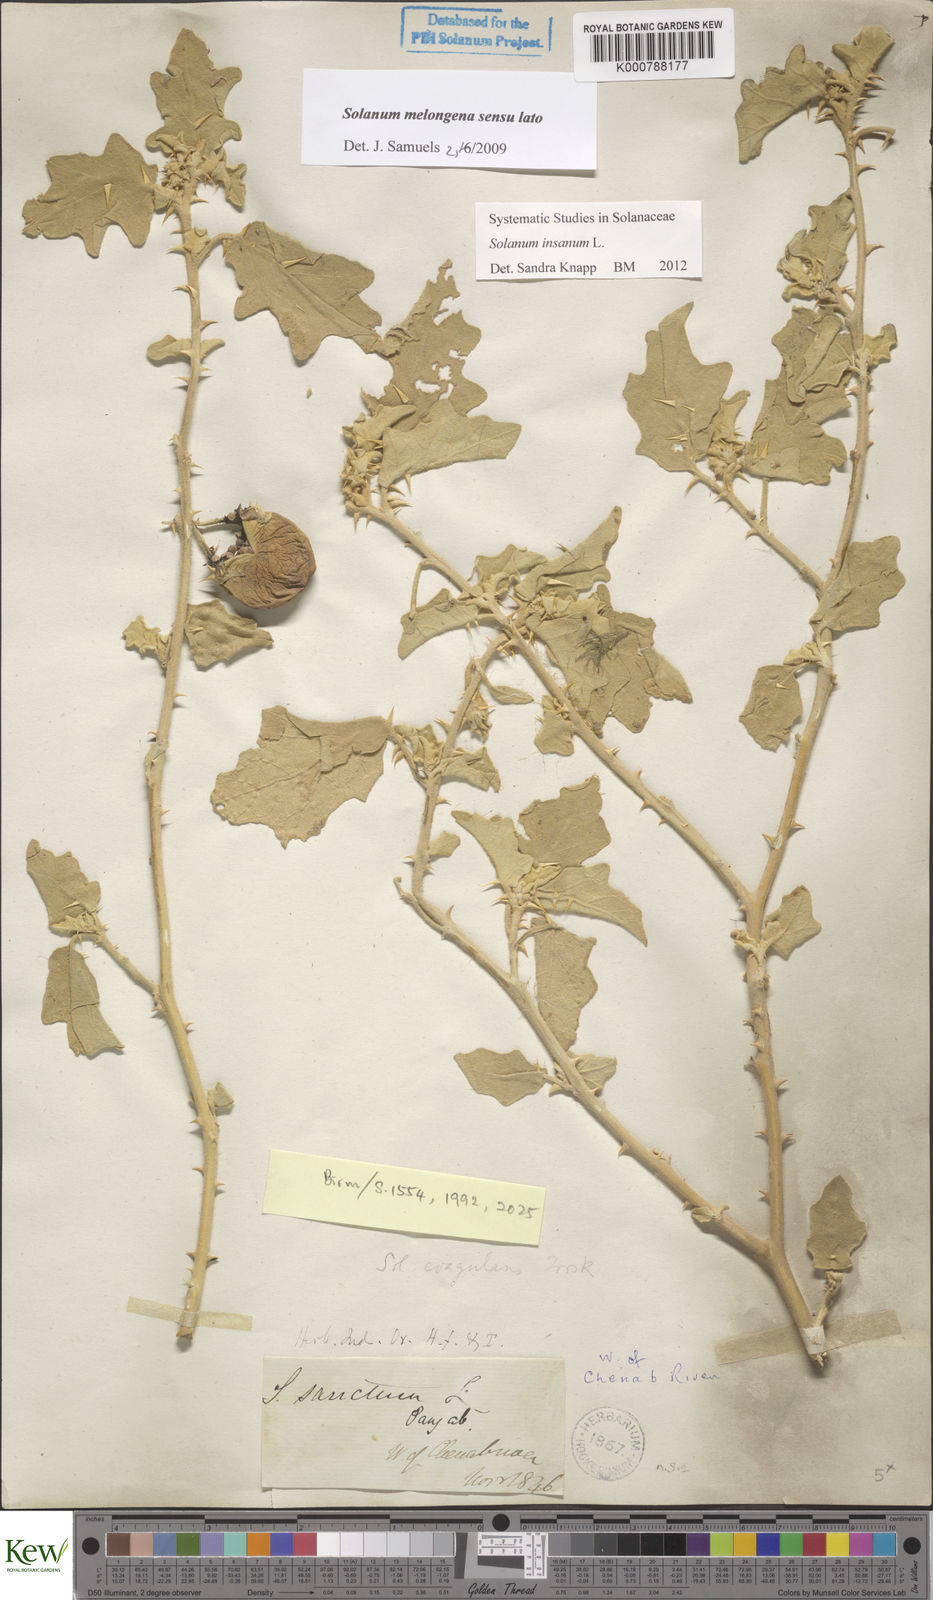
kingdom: Plantae
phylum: Tracheophyta
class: Magnoliopsida
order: Solanales
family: Solanaceae
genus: Solanum
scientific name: Solanum insanum
